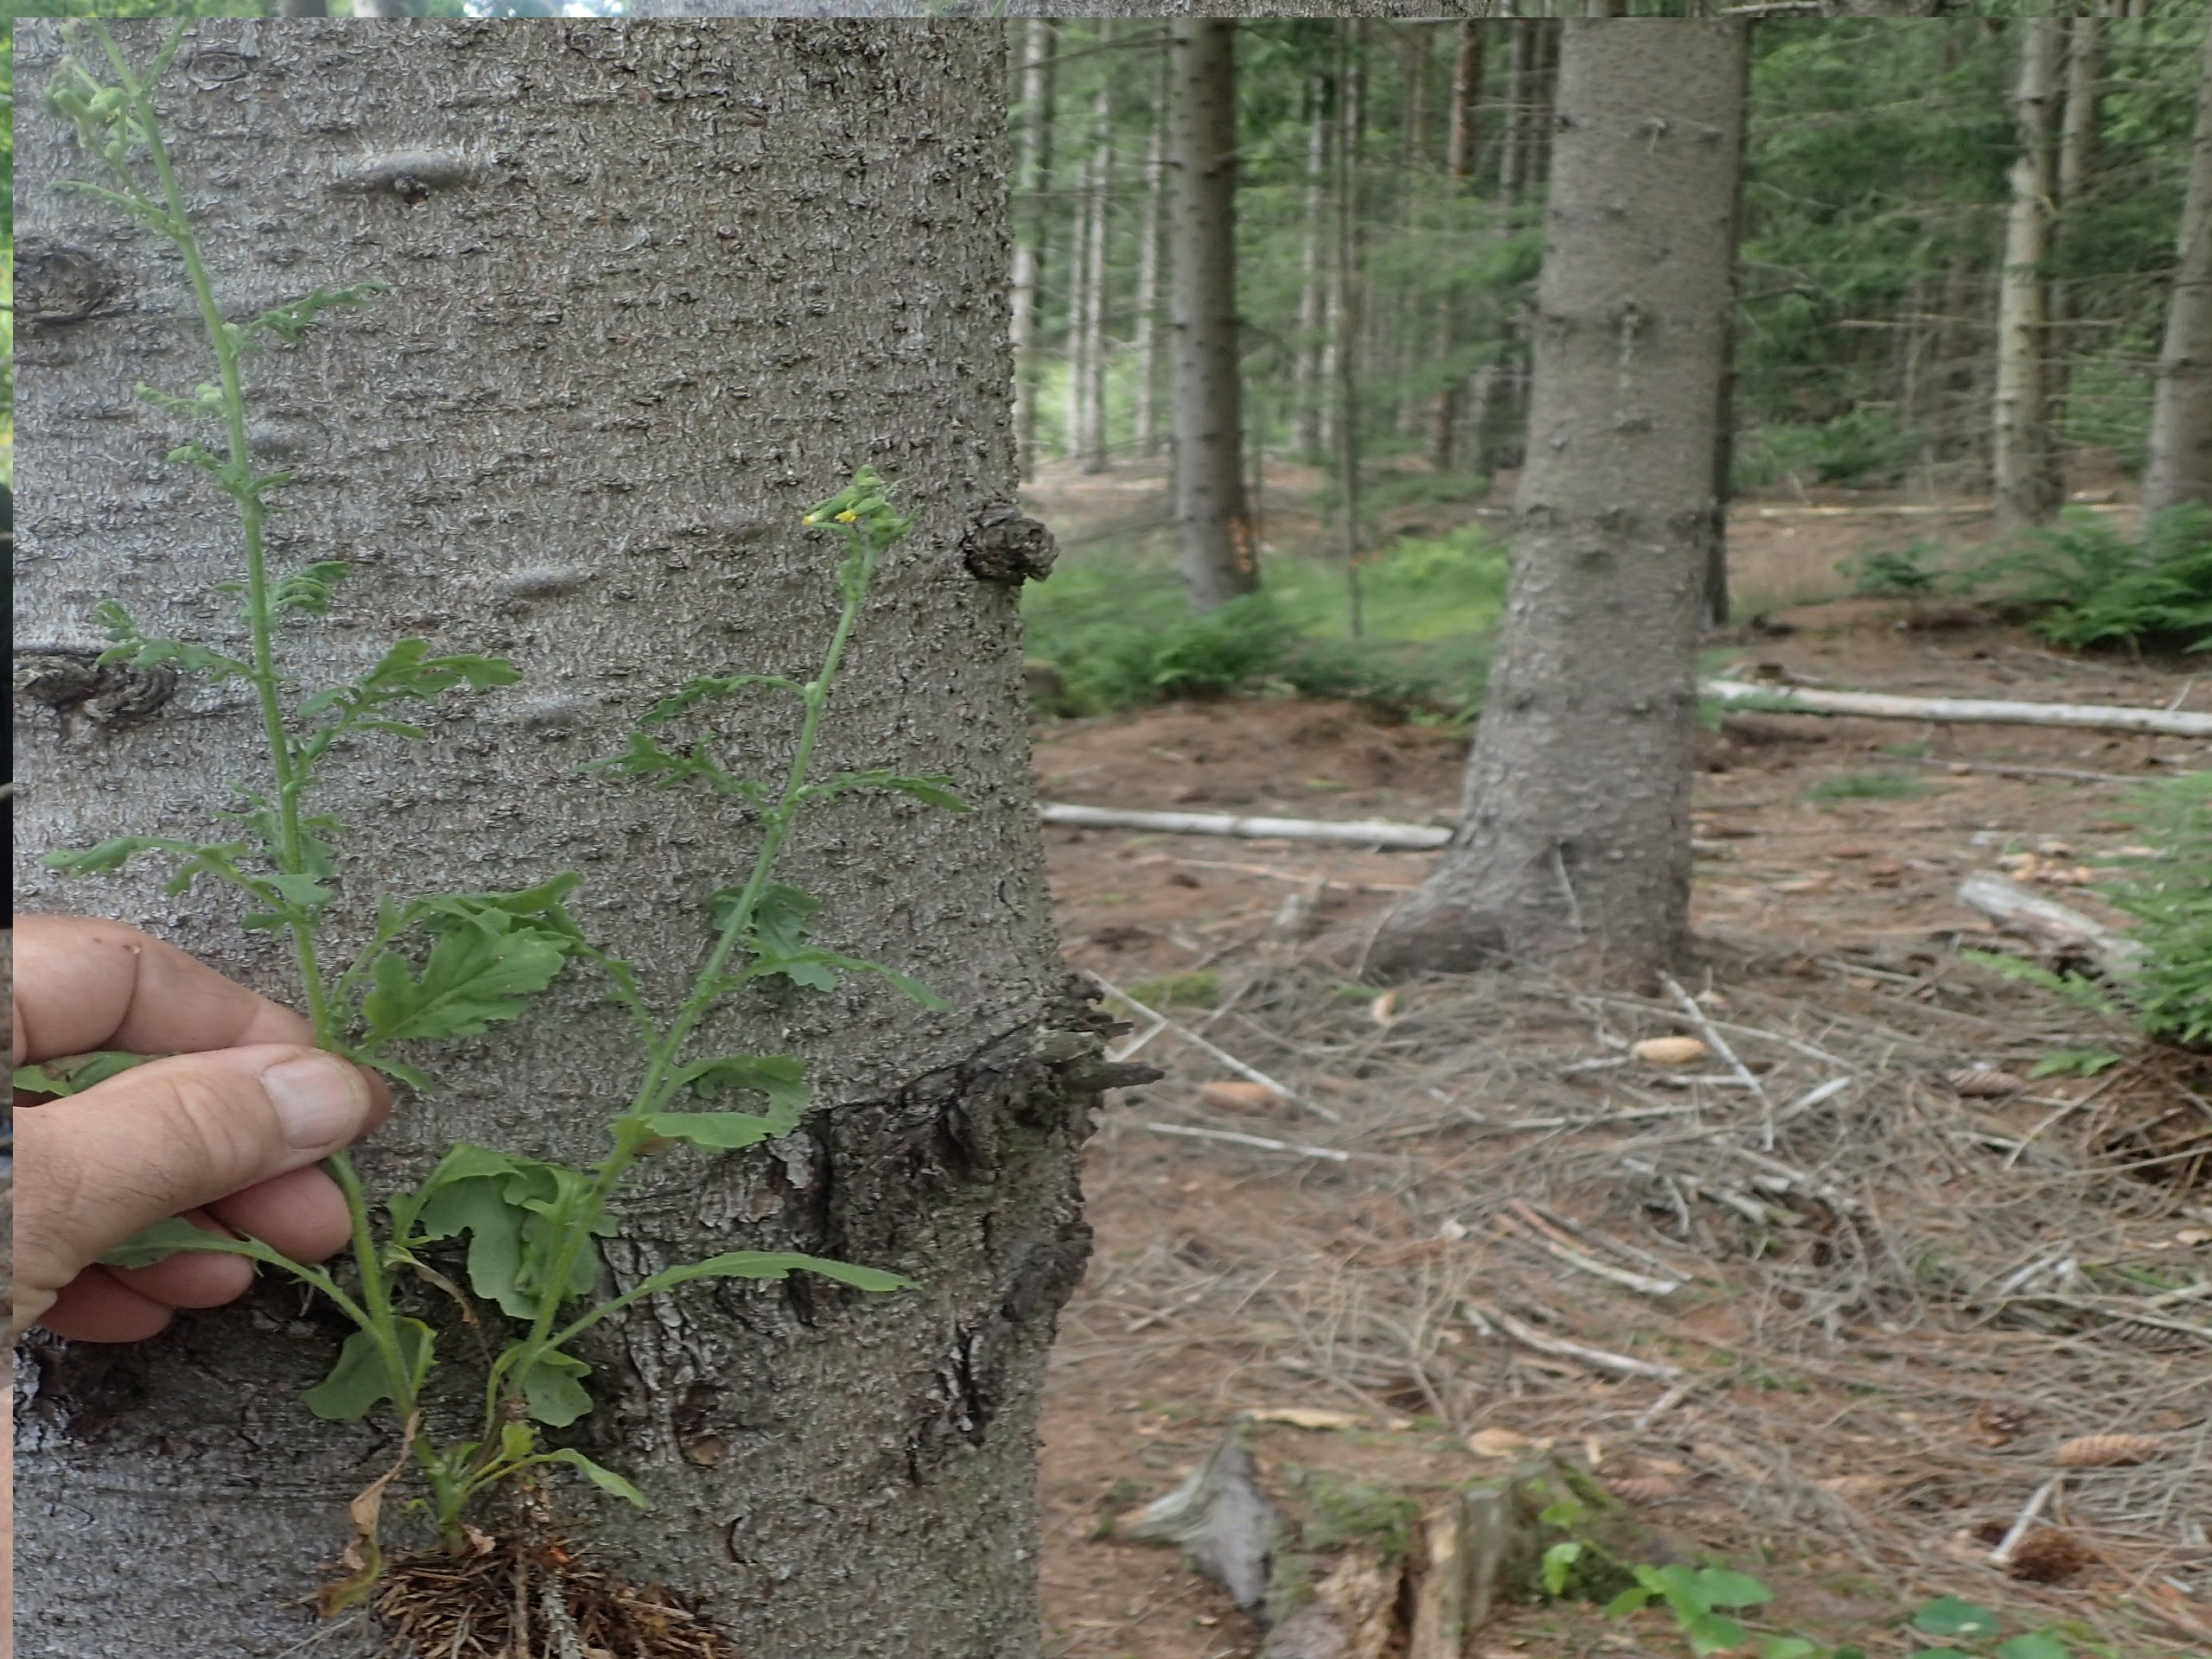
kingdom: Plantae
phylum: Tracheophyta
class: Magnoliopsida
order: Asterales
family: Asteraceae
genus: Senecio
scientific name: Senecio sylvaticus
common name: Skov-brandbæger
